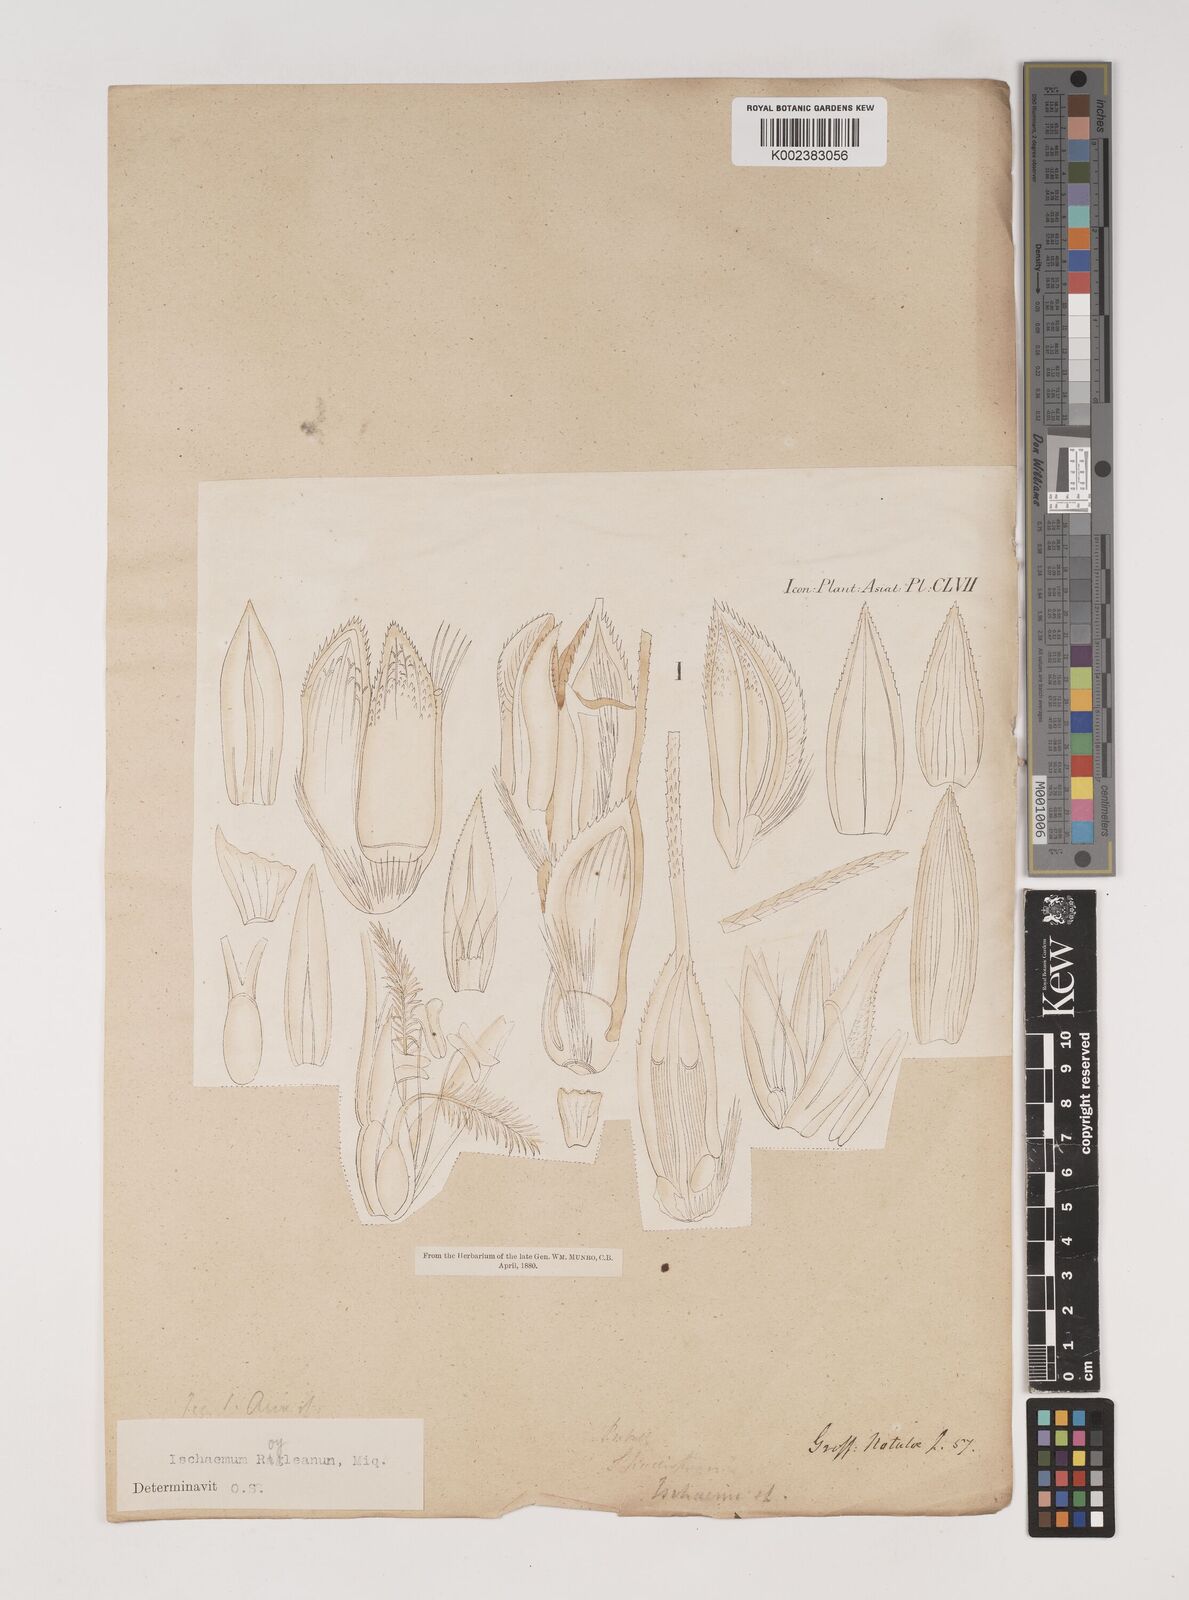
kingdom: Plantae
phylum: Tracheophyta
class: Liliopsida
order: Poales
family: Poaceae
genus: Ischaemum
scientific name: Ischaemum rugosum
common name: Saramatta grass
